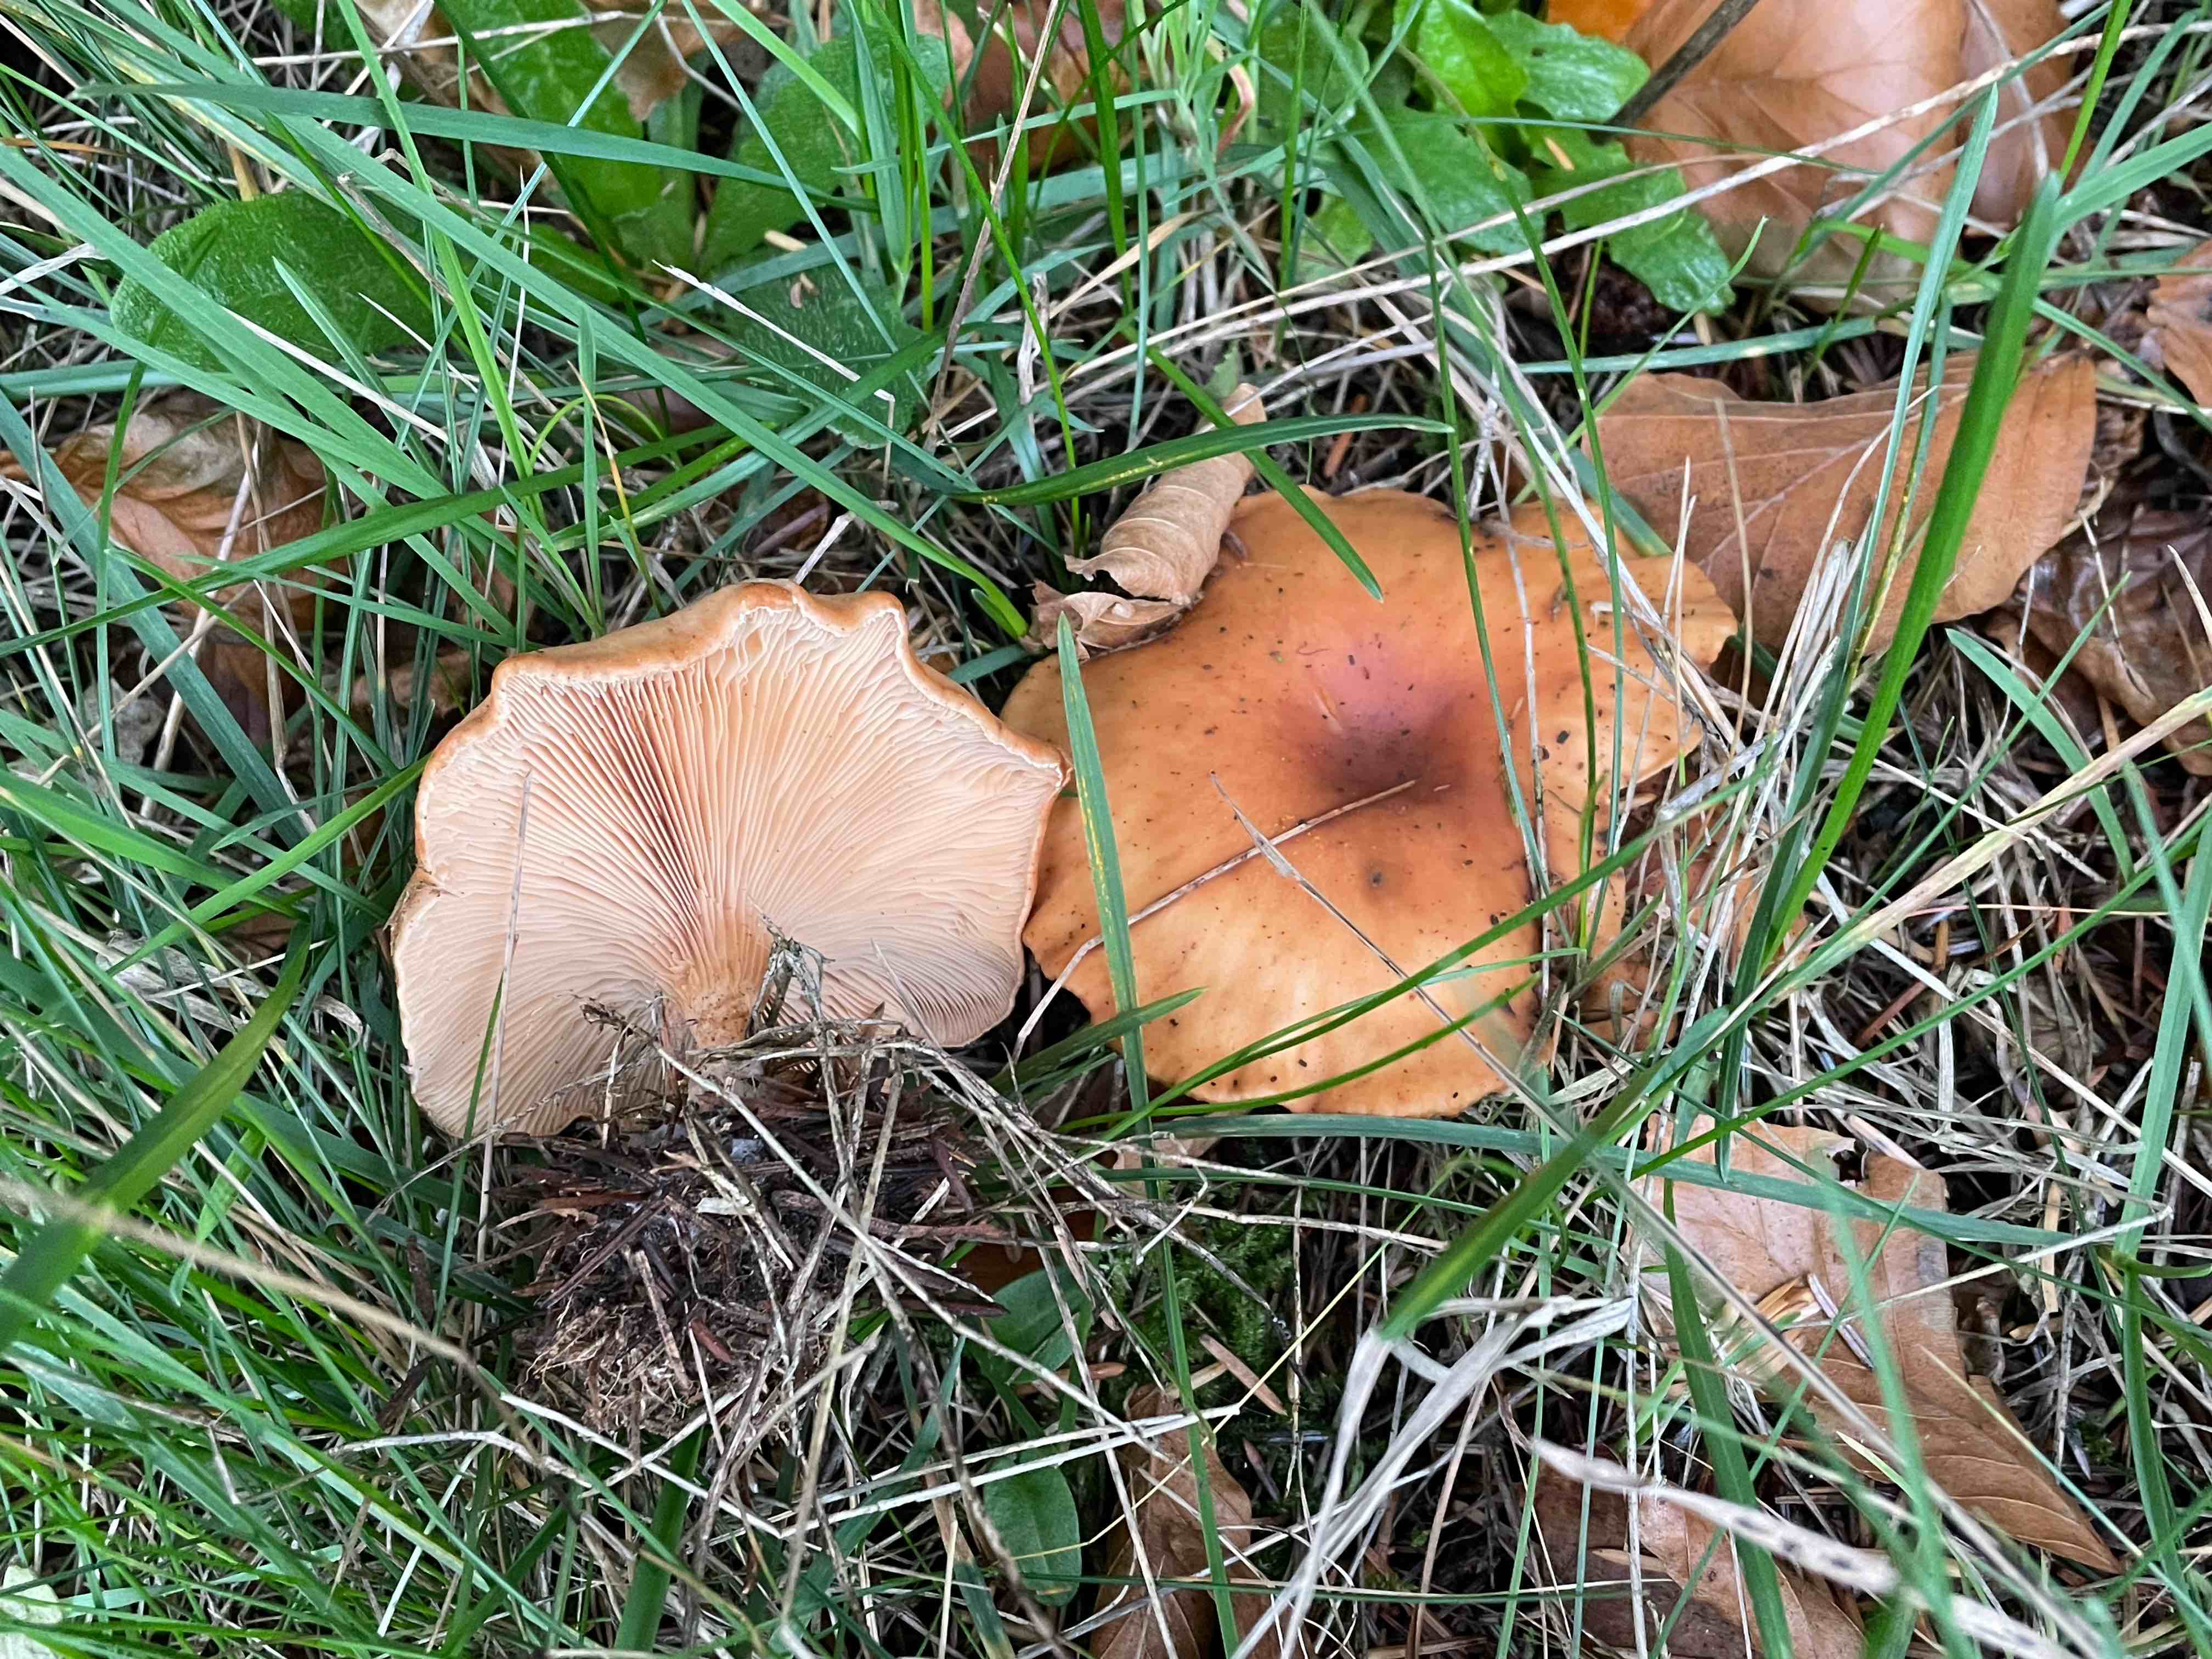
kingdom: Fungi
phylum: Basidiomycota
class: Agaricomycetes
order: Agaricales
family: Tricholomataceae
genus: Paralepista
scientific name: Paralepista flaccida
